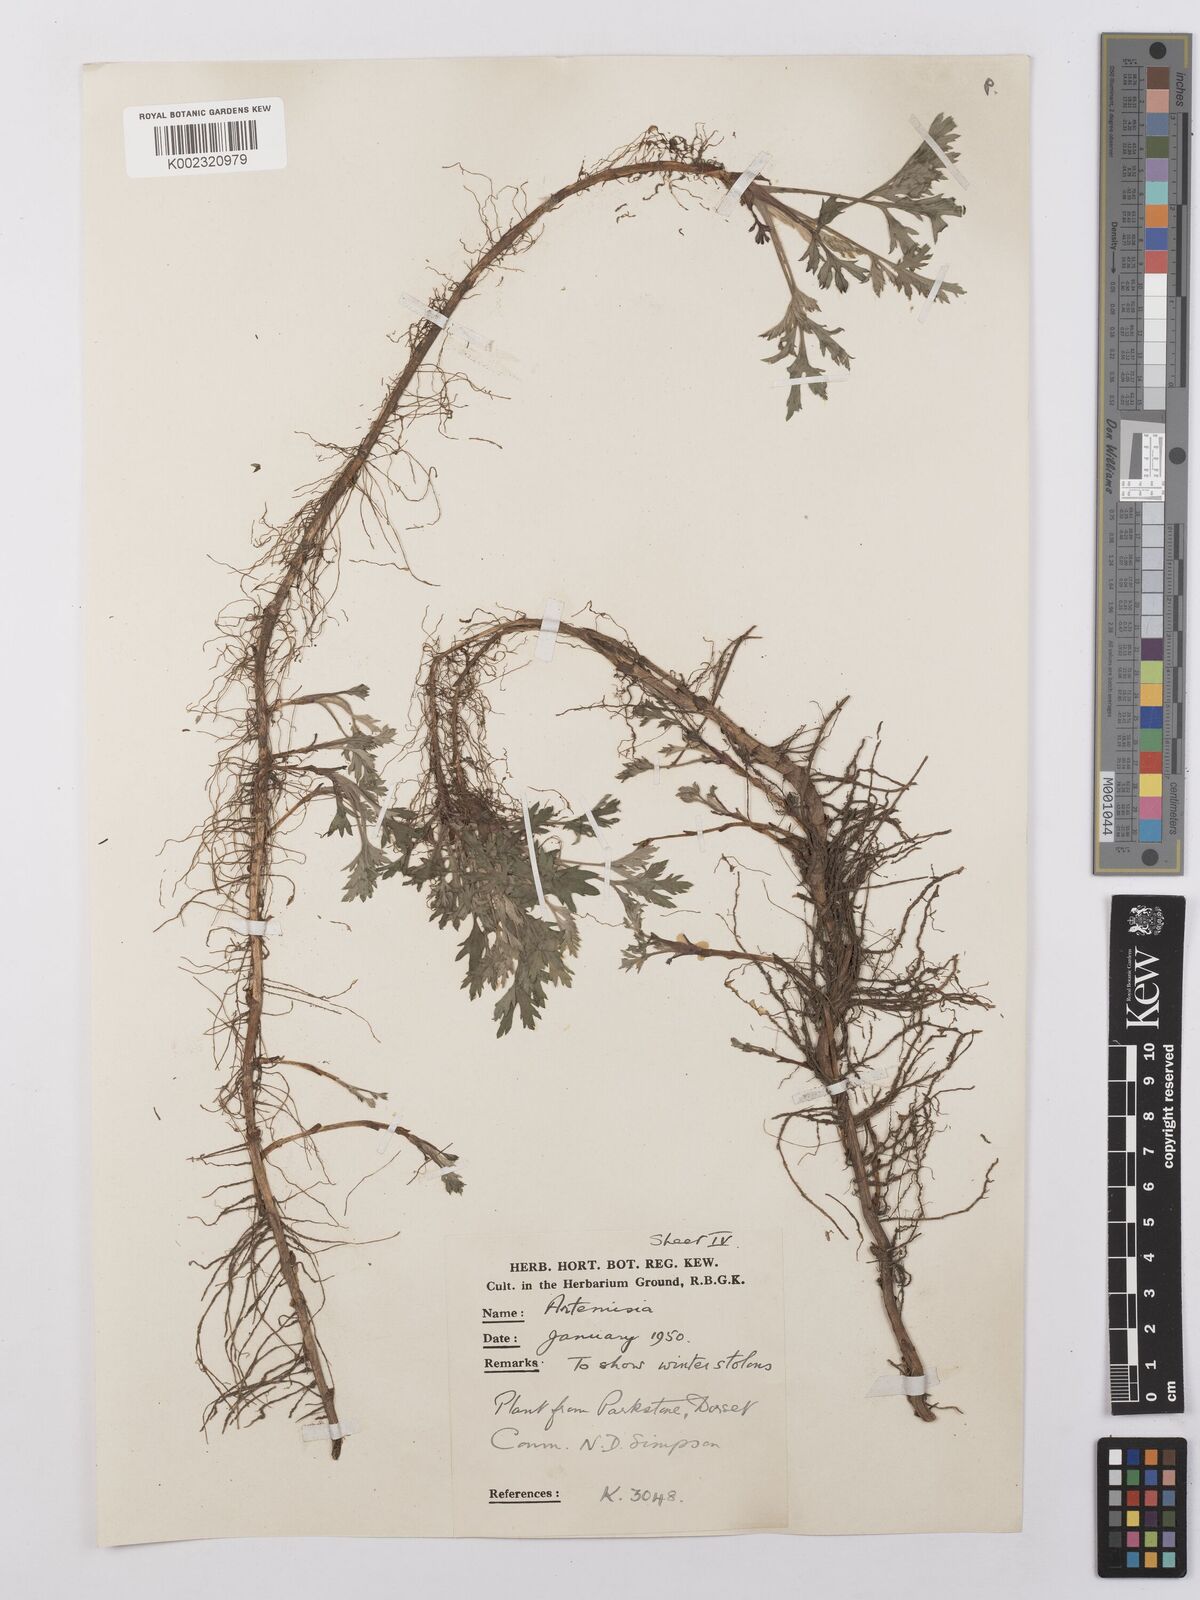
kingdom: Plantae
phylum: Tracheophyta
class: Magnoliopsida
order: Asterales
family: Asteraceae
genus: Artemisia
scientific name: Artemisia
